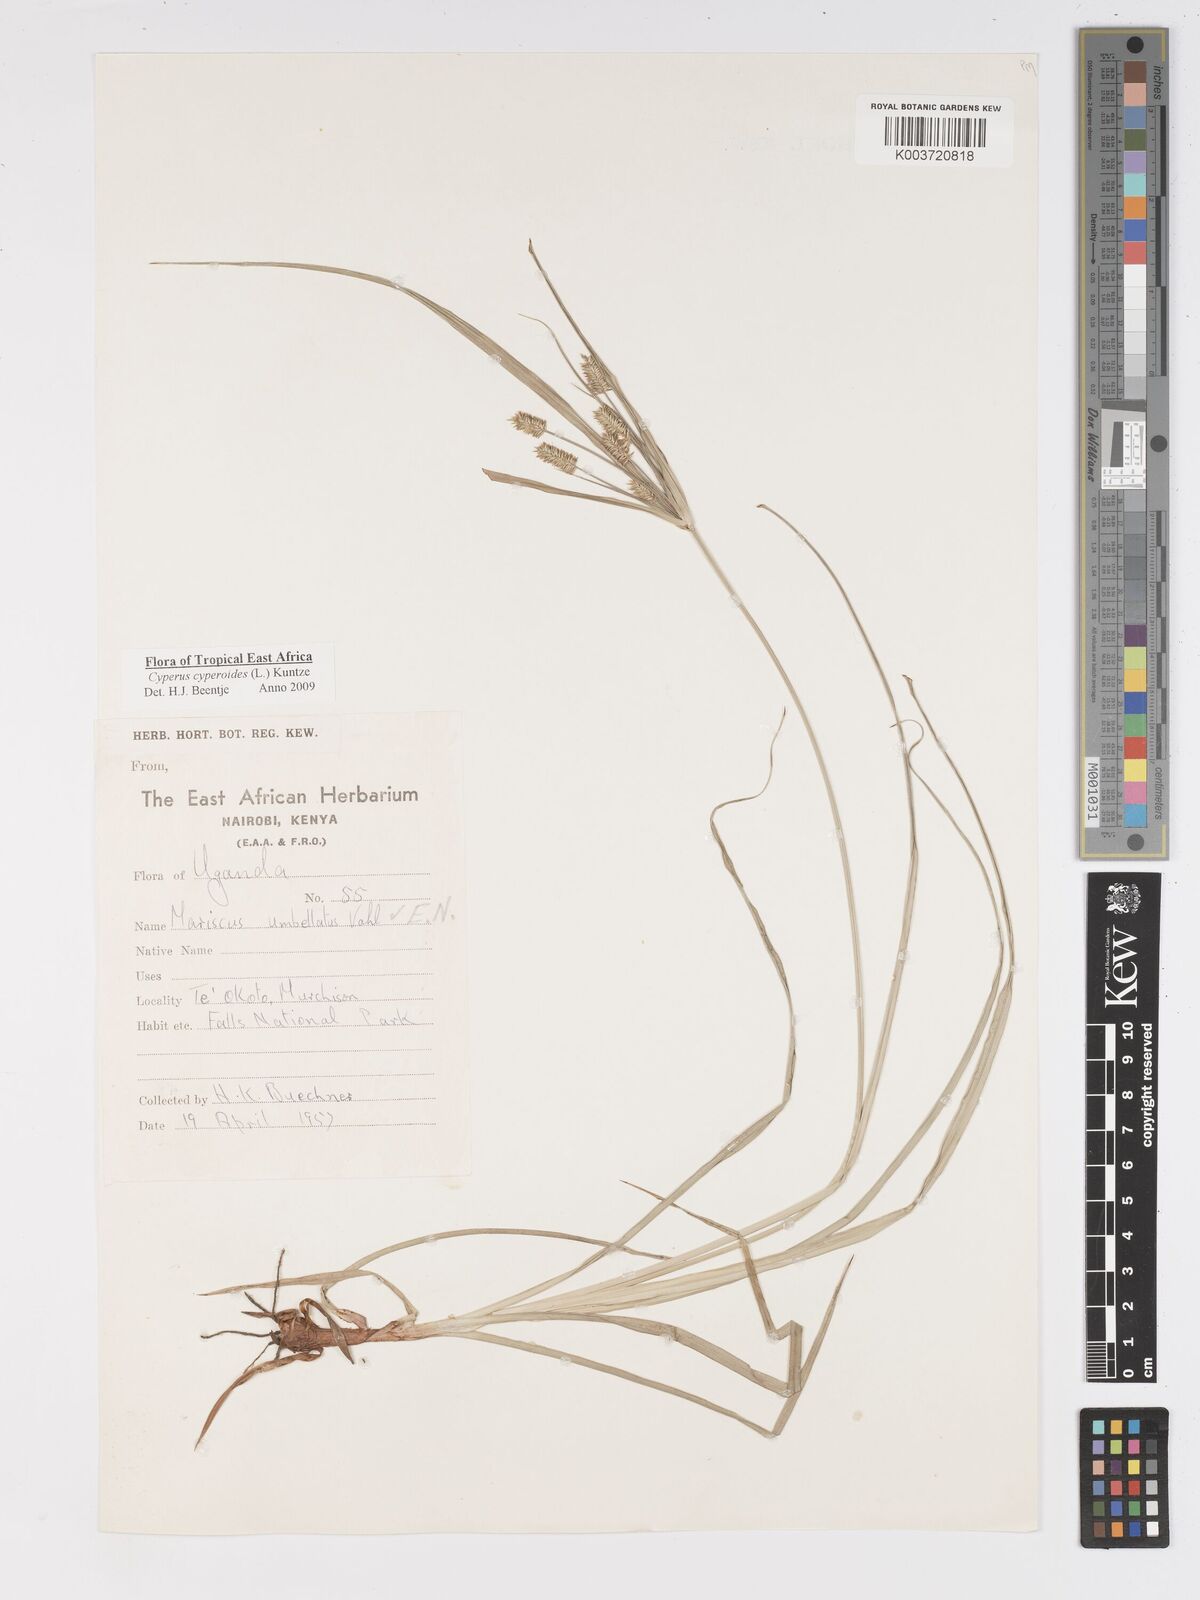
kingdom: Plantae
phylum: Tracheophyta
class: Liliopsida
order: Poales
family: Cyperaceae
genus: Cyperus
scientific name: Cyperus cyperoides
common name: Pacific island flat sedge
